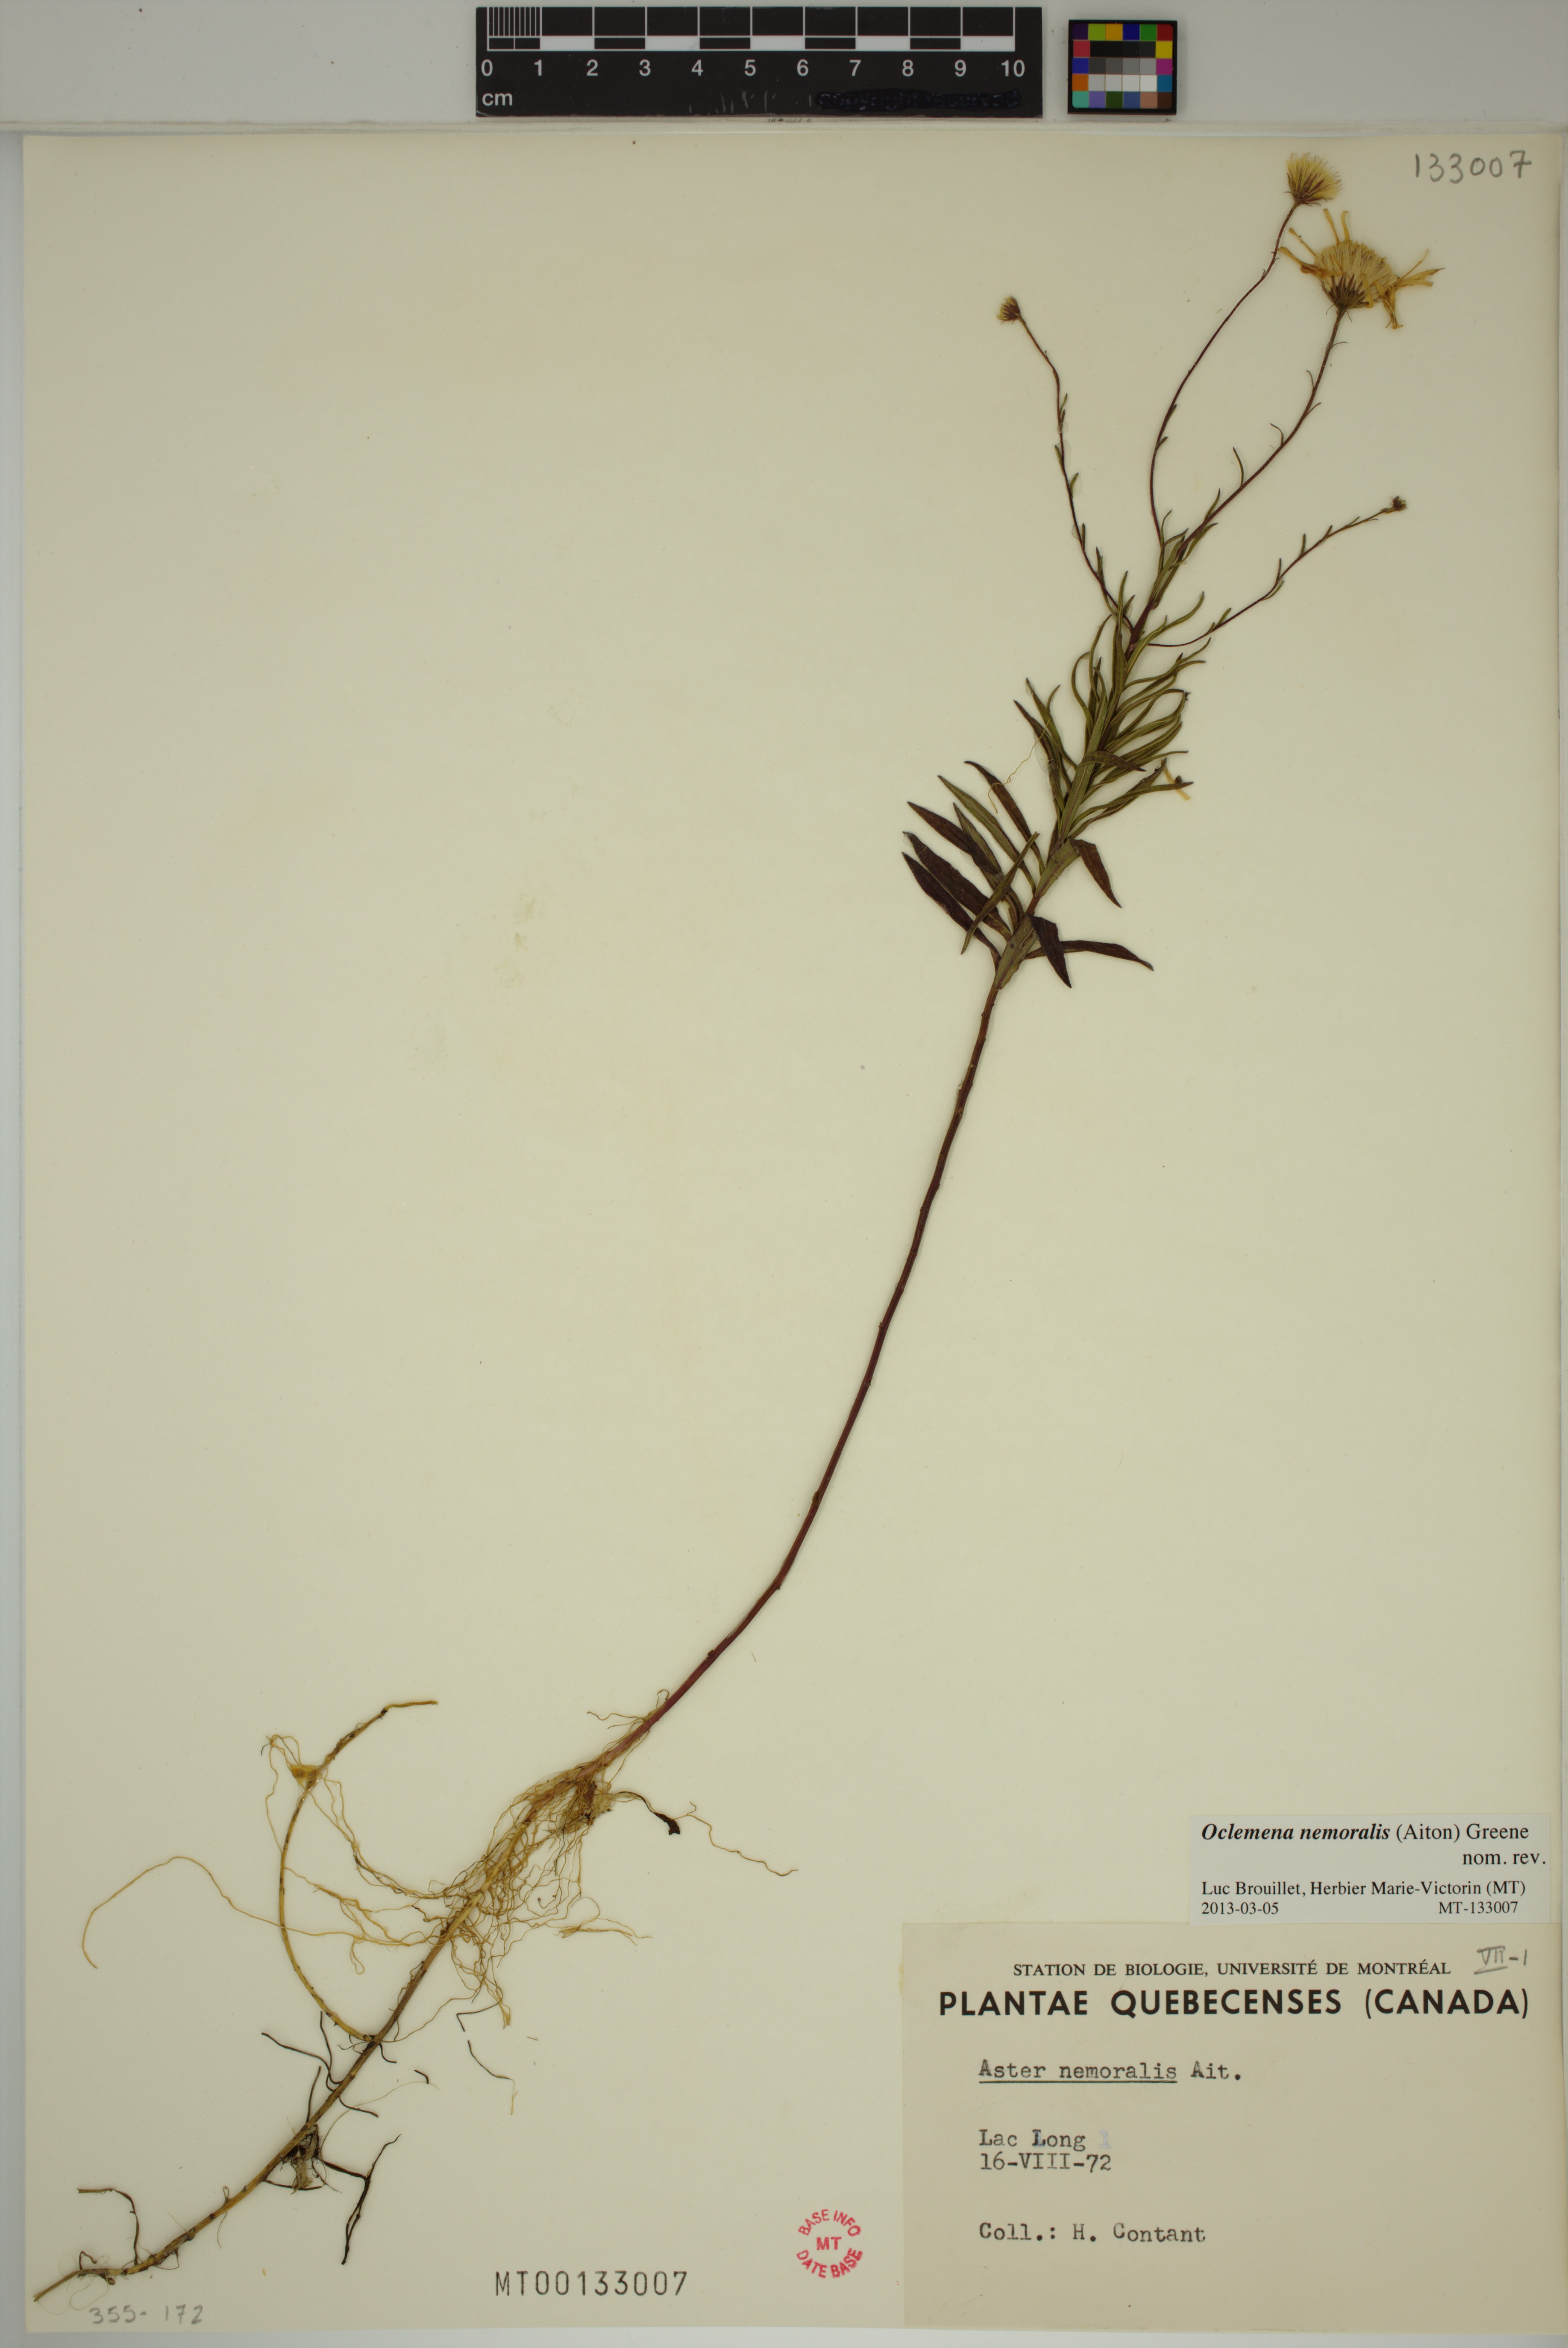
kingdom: Plantae
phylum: Tracheophyta
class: Magnoliopsida
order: Asterales
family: Asteraceae
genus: Oclemena
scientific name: Oclemena nemoralis
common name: Bog aster
